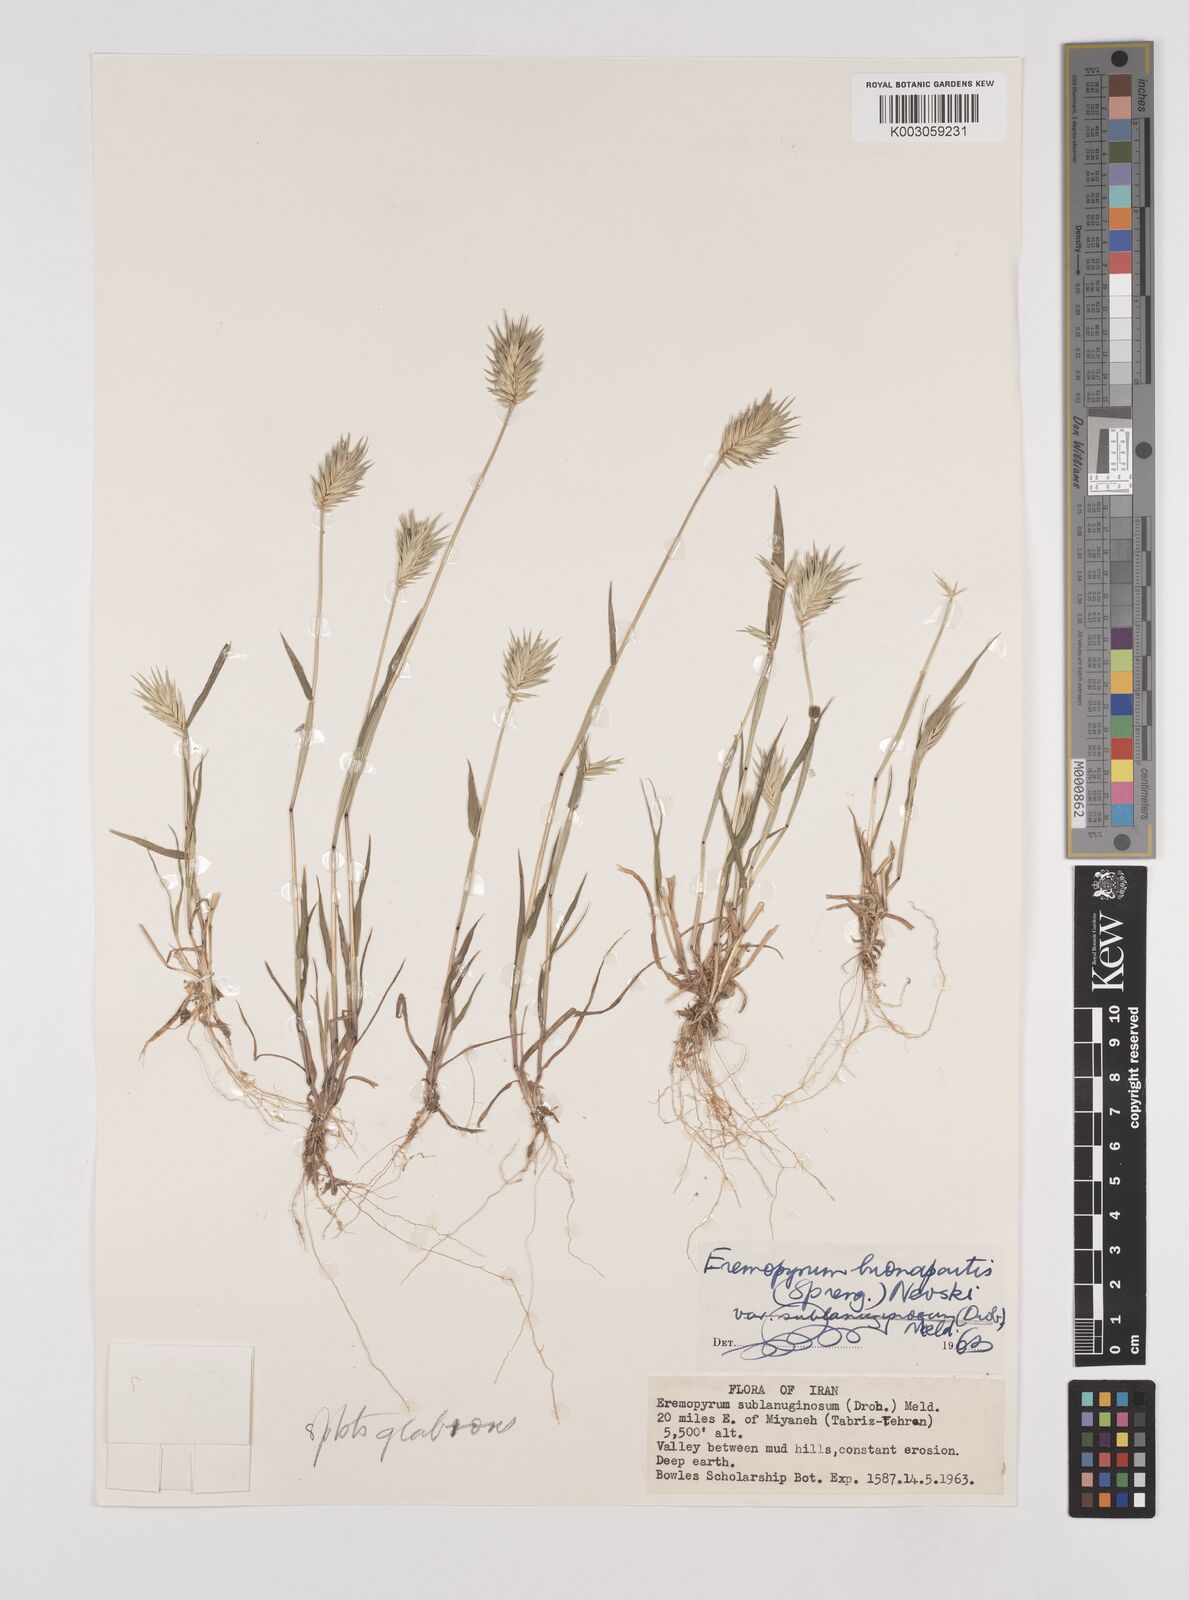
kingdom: Plantae
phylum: Tracheophyta
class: Liliopsida
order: Poales
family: Poaceae
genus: Eremopyrum
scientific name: Eremopyrum bonaepartis
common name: Tapertip false wheatgrass
